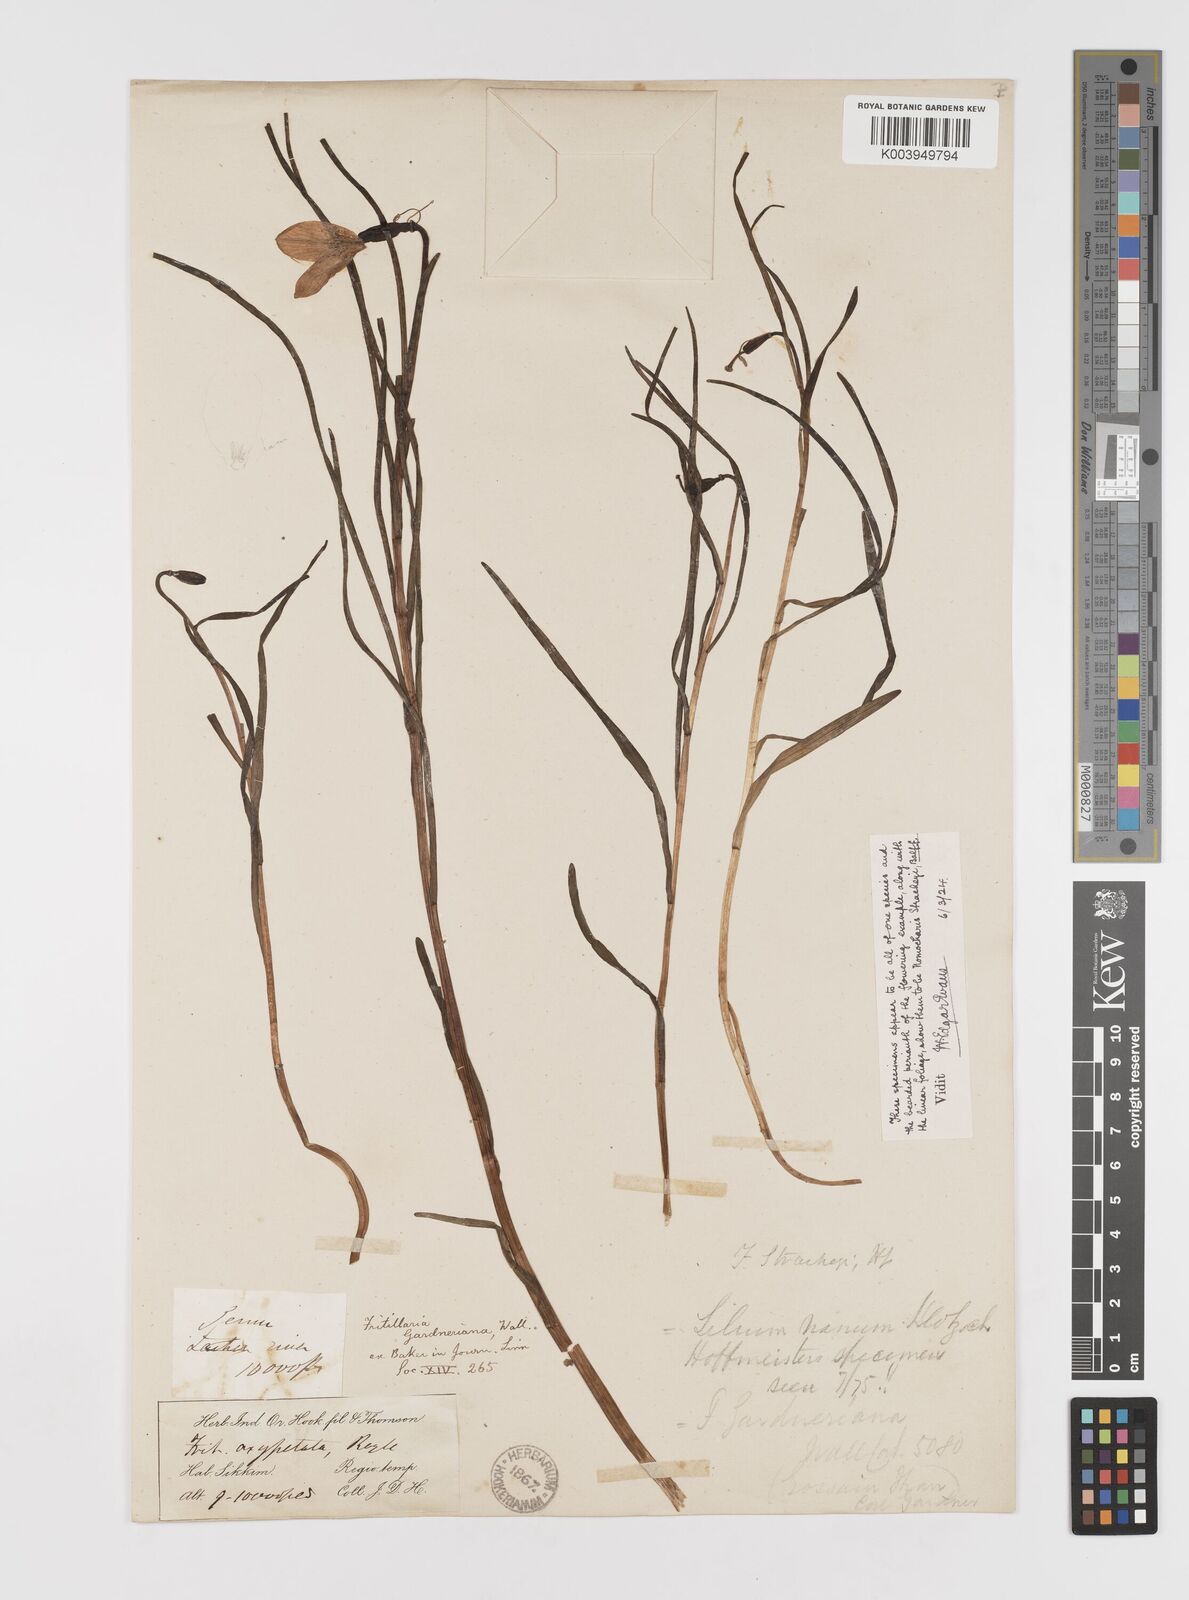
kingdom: Plantae
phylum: Tracheophyta
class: Liliopsida
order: Liliales
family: Liliaceae
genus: Lilium
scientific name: Lilium nanum
